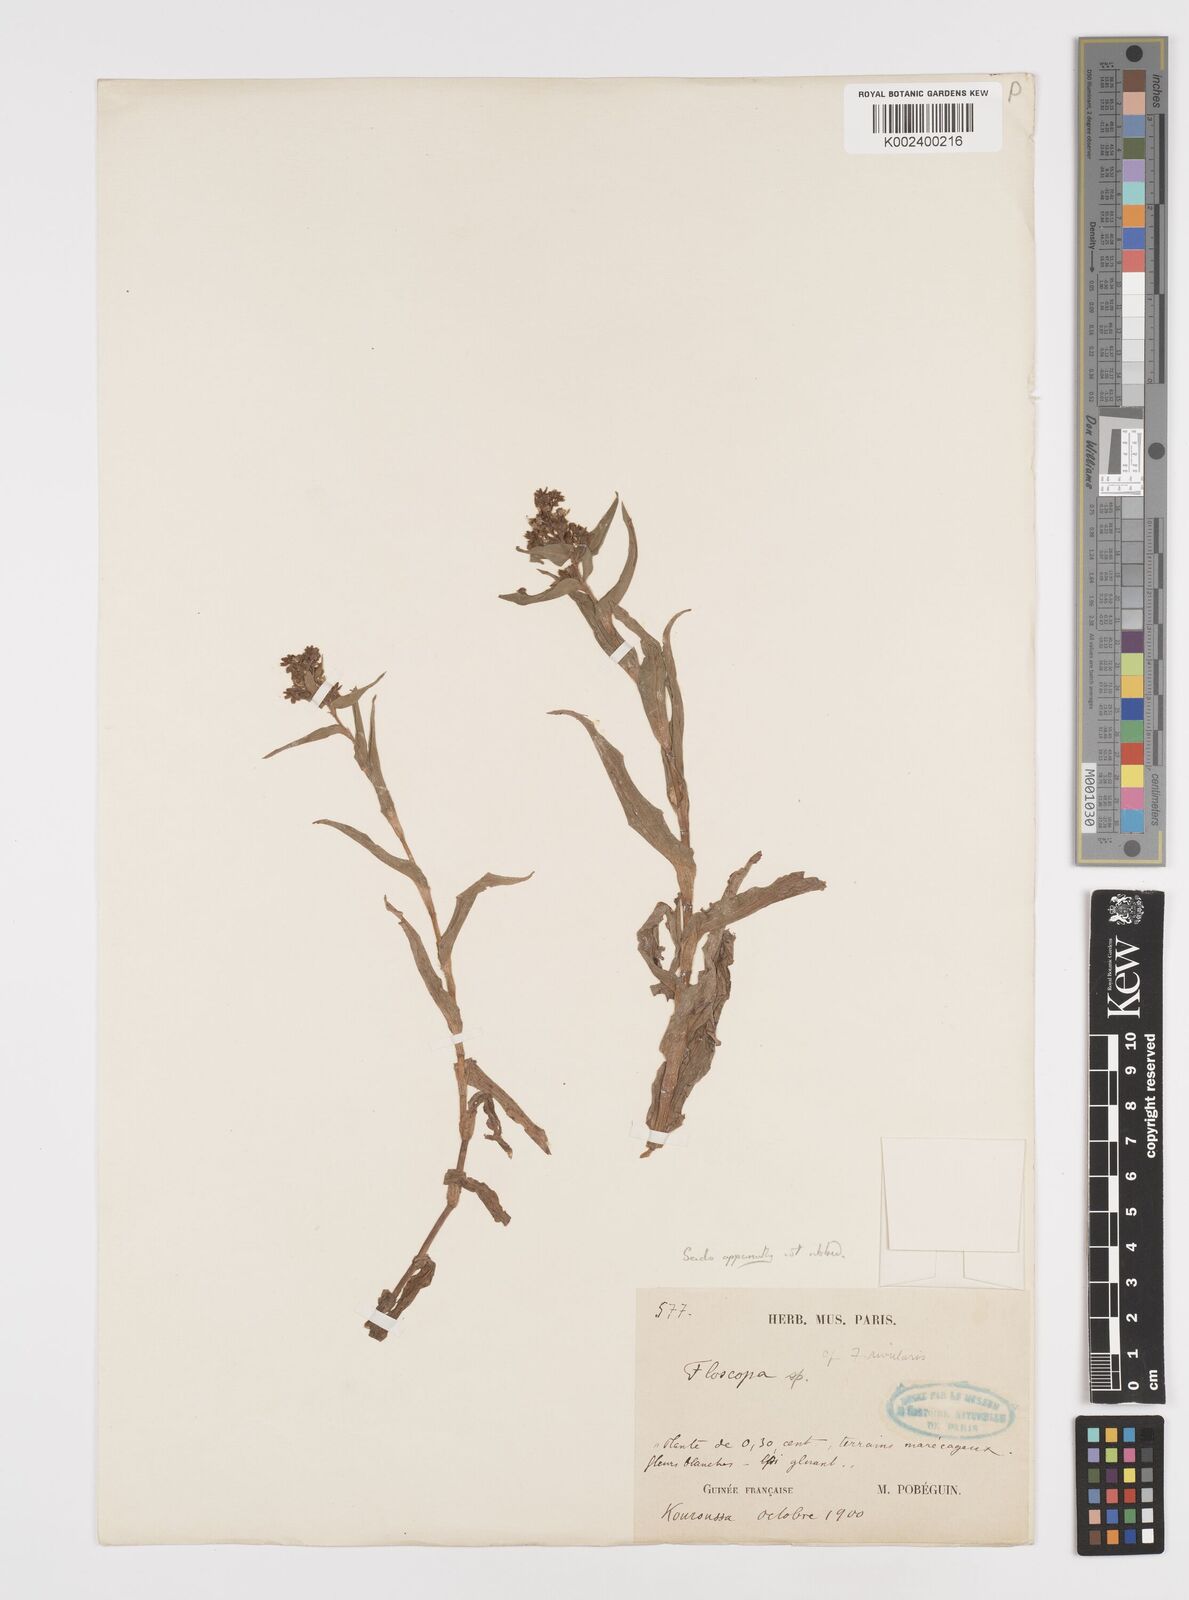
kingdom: Plantae
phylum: Tracheophyta
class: Liliopsida
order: Commelinales
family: Commelinaceae
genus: Floscopa
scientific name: Floscopa
